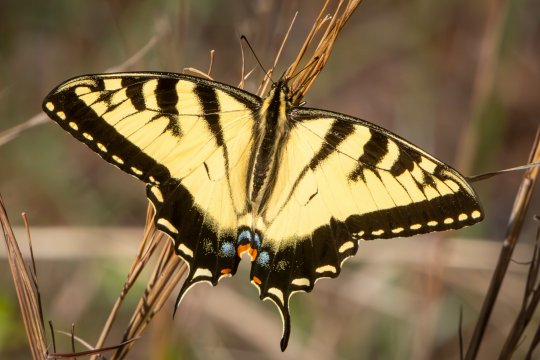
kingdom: Animalia
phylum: Arthropoda
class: Insecta
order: Lepidoptera
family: Papilionidae
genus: Pterourus
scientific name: Pterourus glaucus
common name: Eastern Tiger Swallowtail
